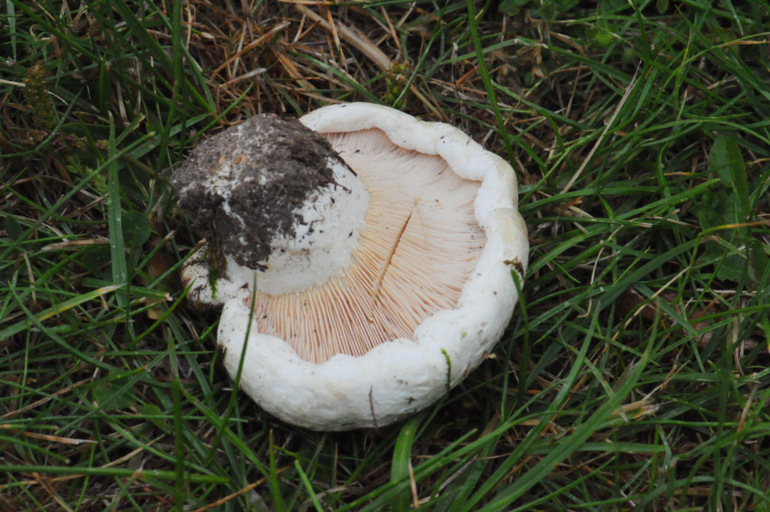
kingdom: Fungi
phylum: Basidiomycota
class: Agaricomycetes
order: Russulales
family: Russulaceae
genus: Lactarius
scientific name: Lactarius controversus
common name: rosabladet mælkehat
